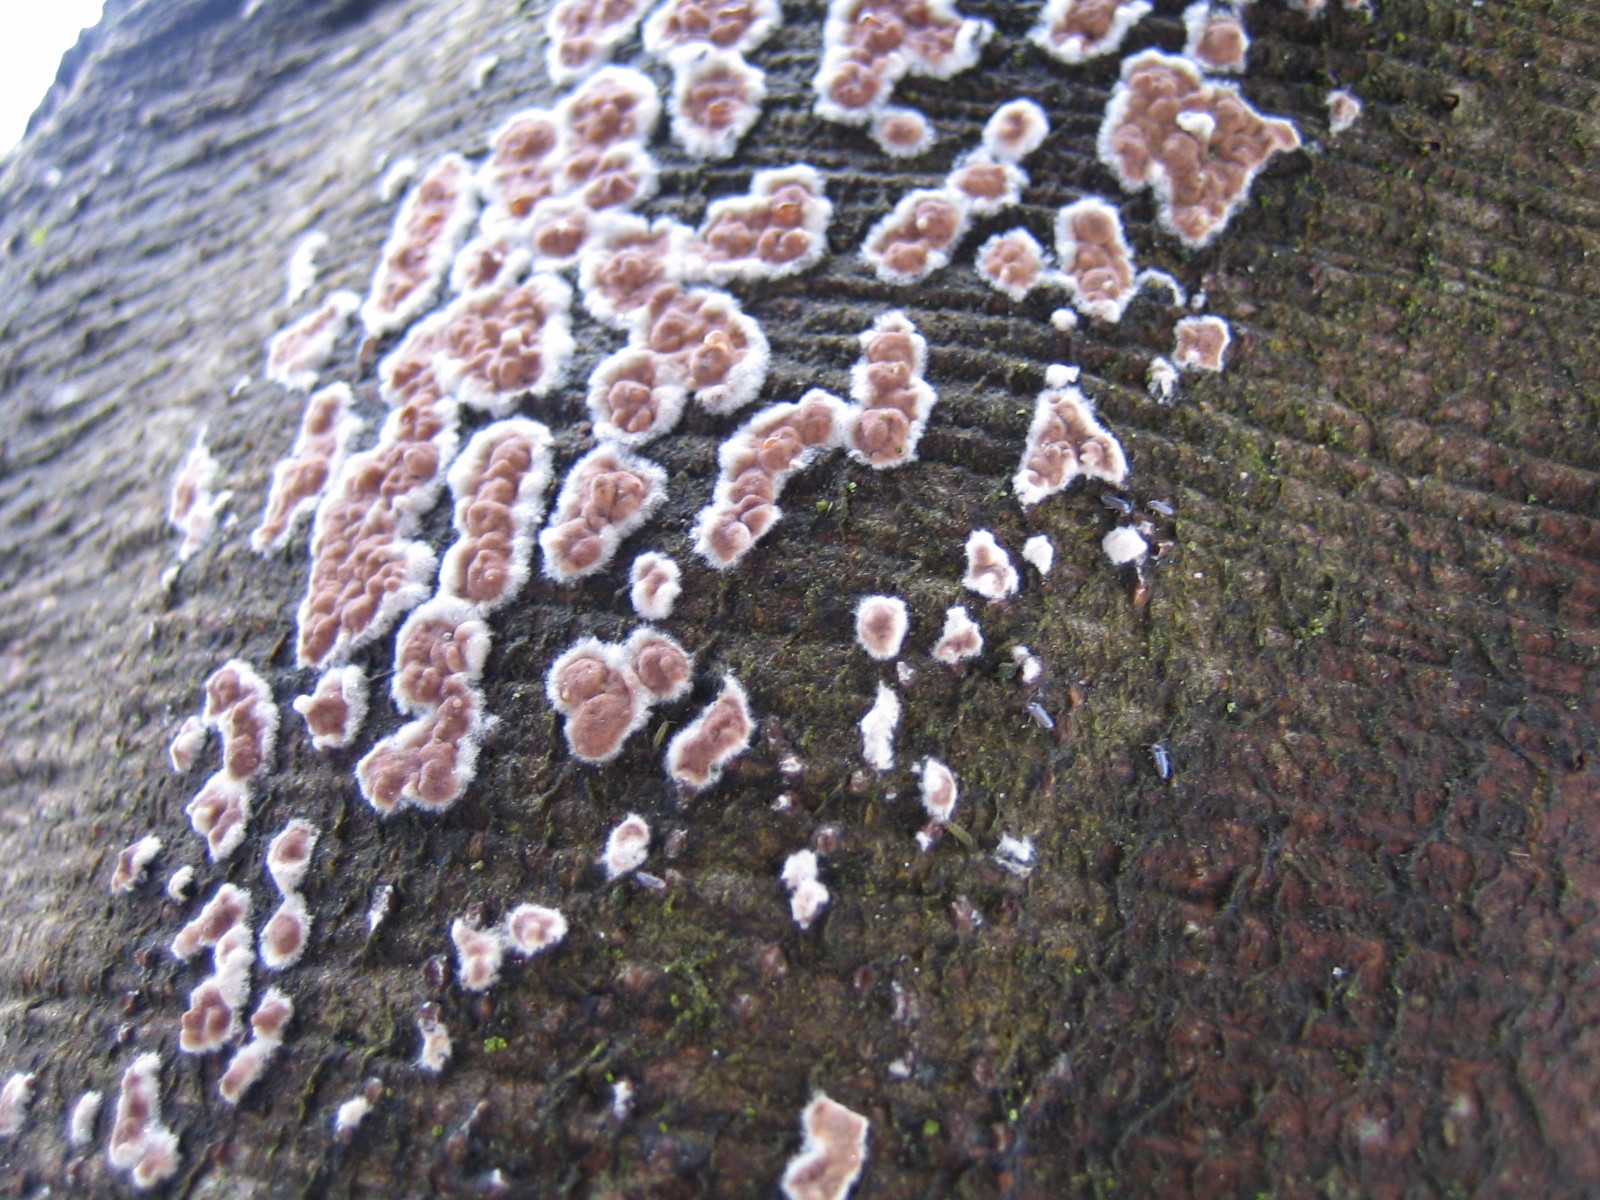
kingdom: Fungi
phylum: Basidiomycota
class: Agaricomycetes
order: Agaricales
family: Physalacriaceae
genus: Cylindrobasidium
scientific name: Cylindrobasidium evolvens
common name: sprækkehinde
